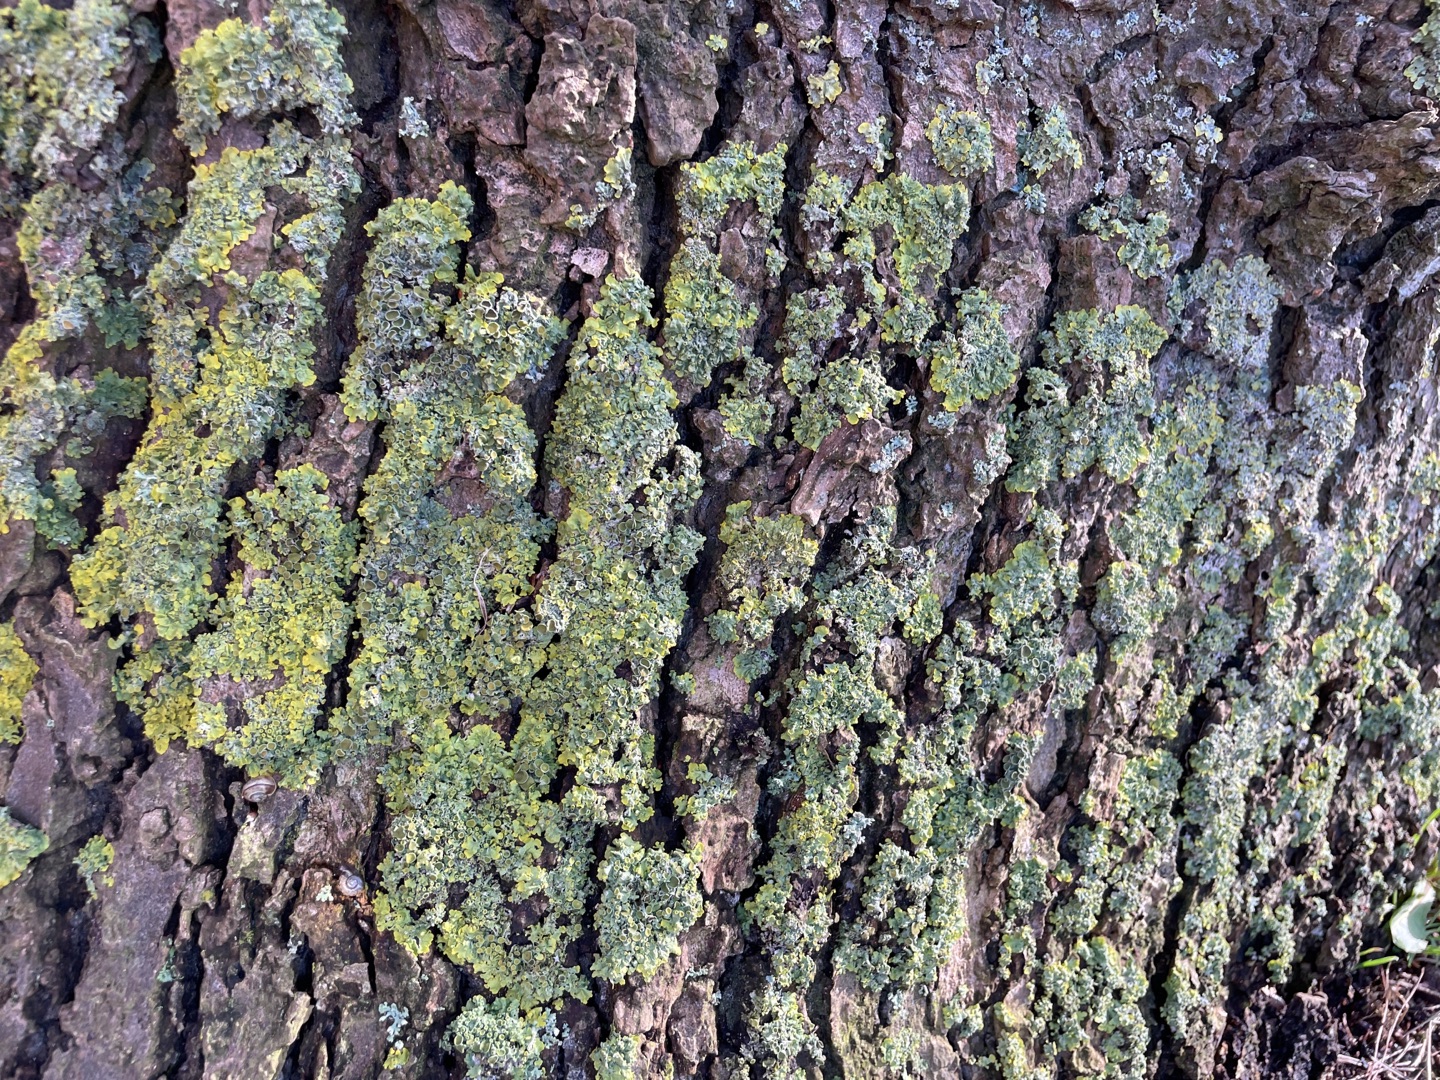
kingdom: Fungi
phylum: Ascomycota
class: Lecanoromycetes
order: Teloschistales
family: Teloschistaceae
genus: Xanthoria
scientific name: Xanthoria parietina
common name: Almindelig væggelav
